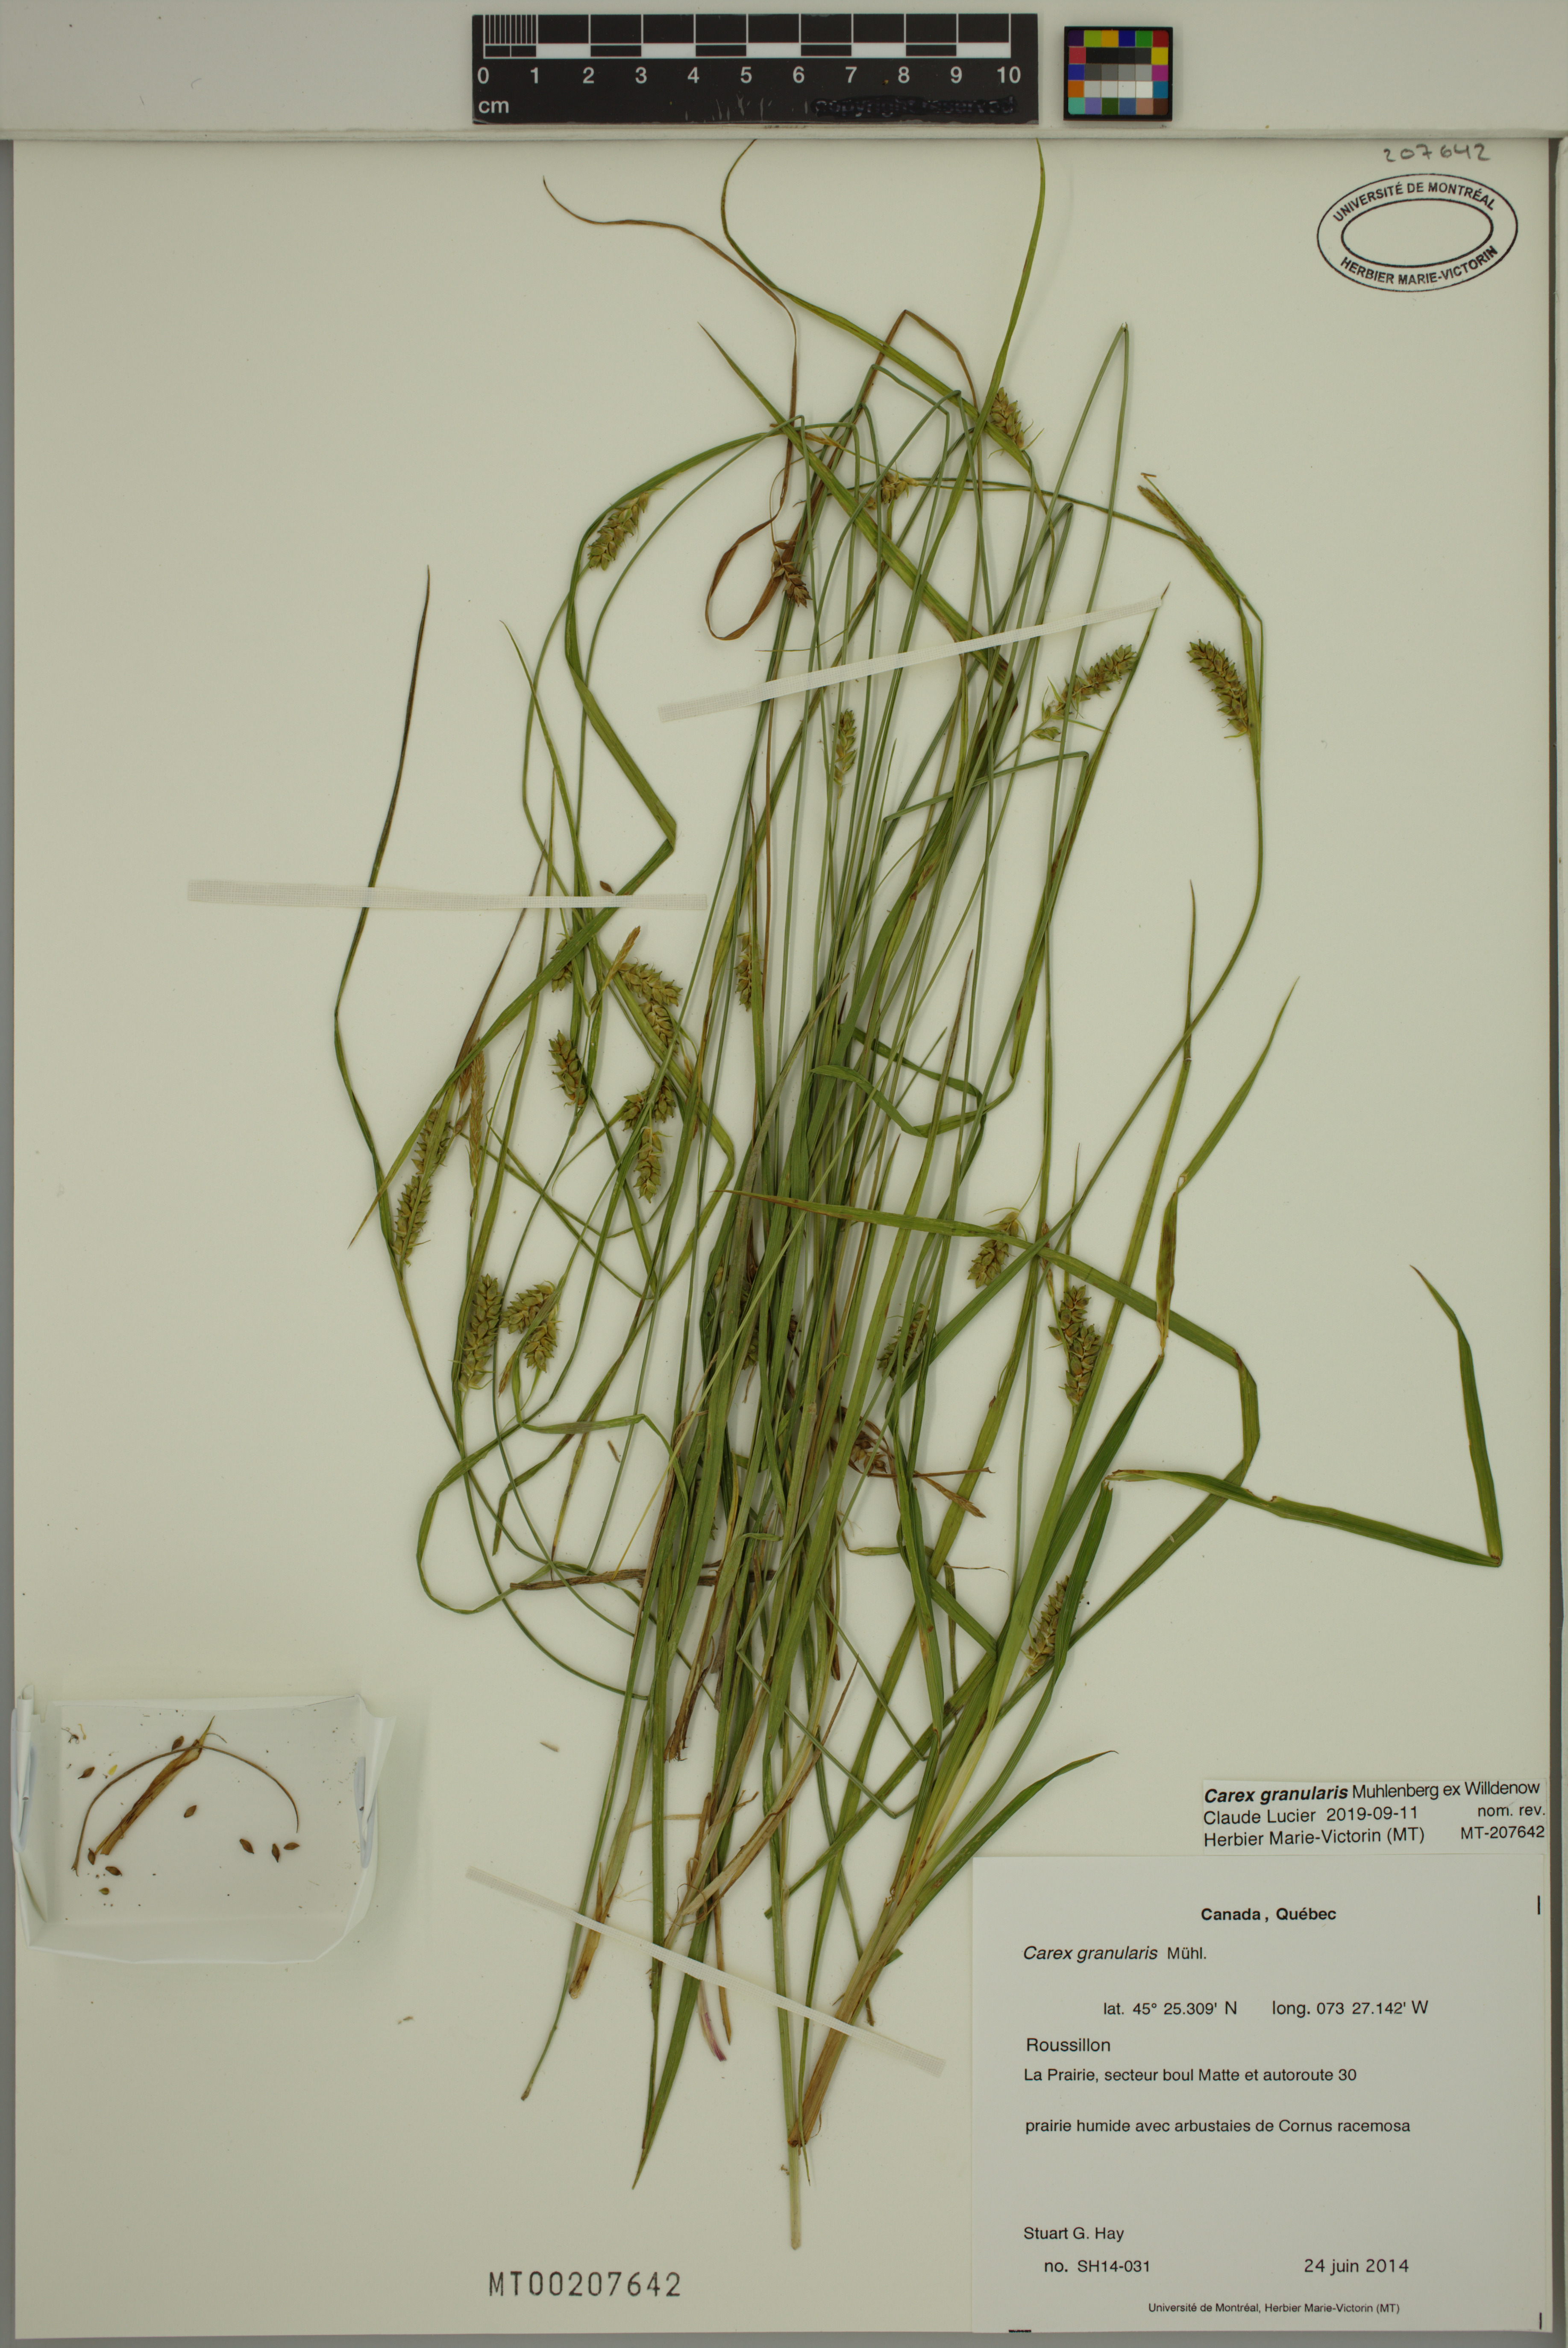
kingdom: Plantae
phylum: Tracheophyta
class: Liliopsida
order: Poales
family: Cyperaceae
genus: Carex
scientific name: Carex granularis
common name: Granular sedge
